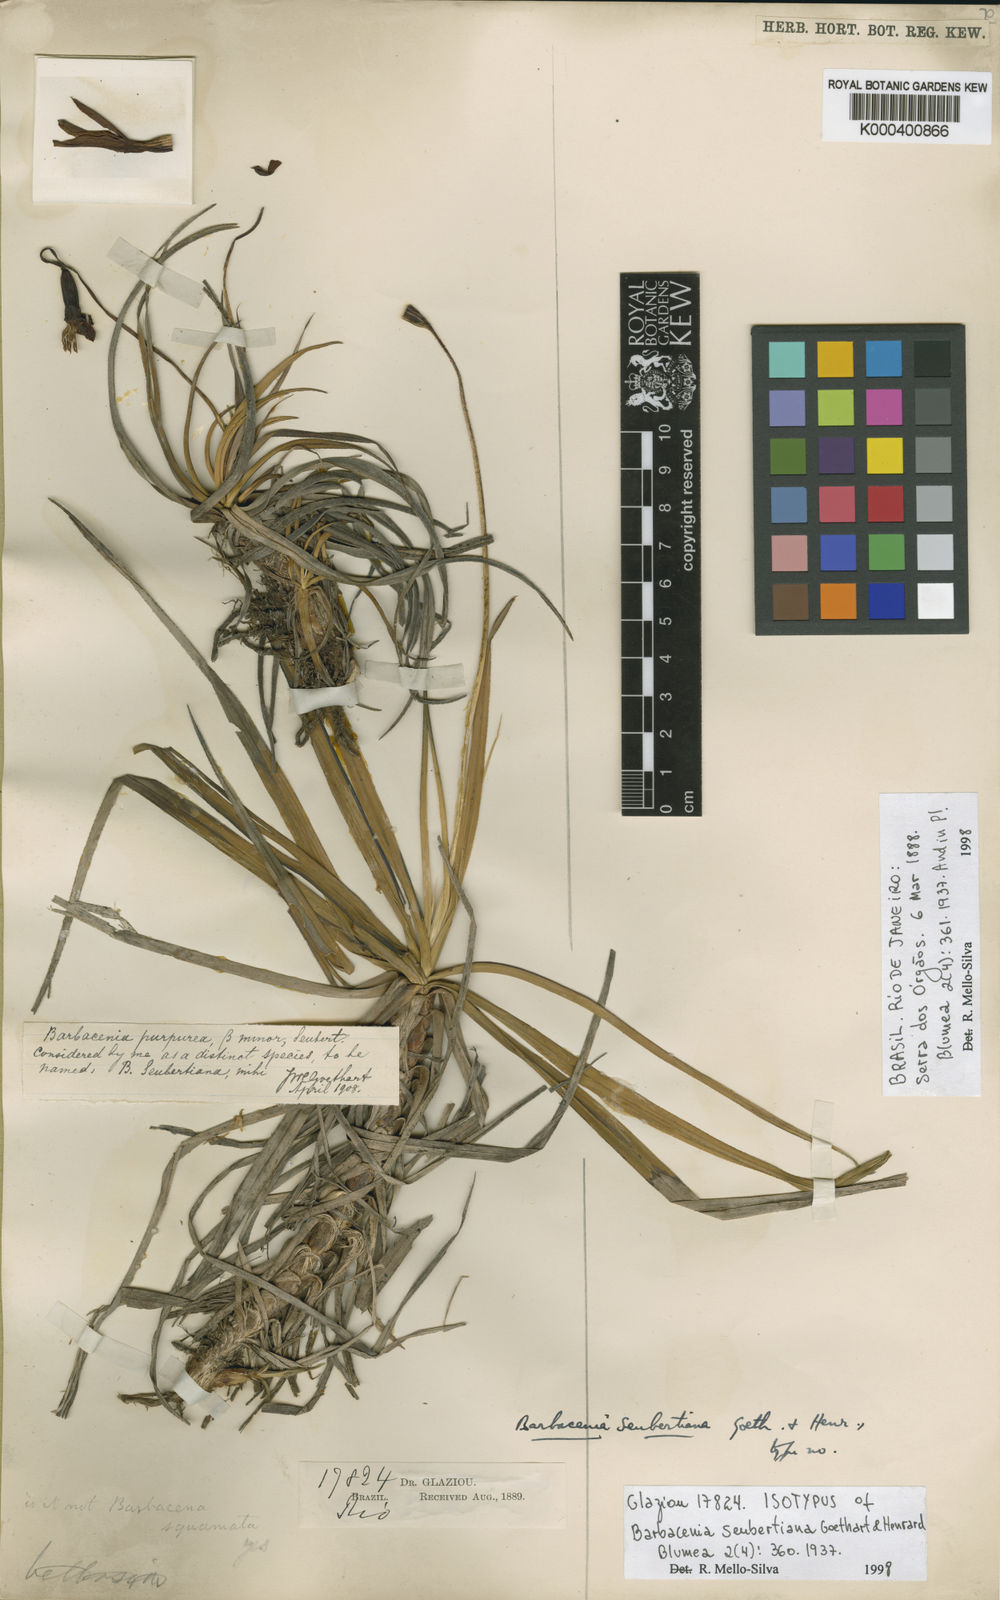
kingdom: Plantae
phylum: Tracheophyta
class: Liliopsida
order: Pandanales
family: Velloziaceae
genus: Barbacenia
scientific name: Barbacenia seubertiana
